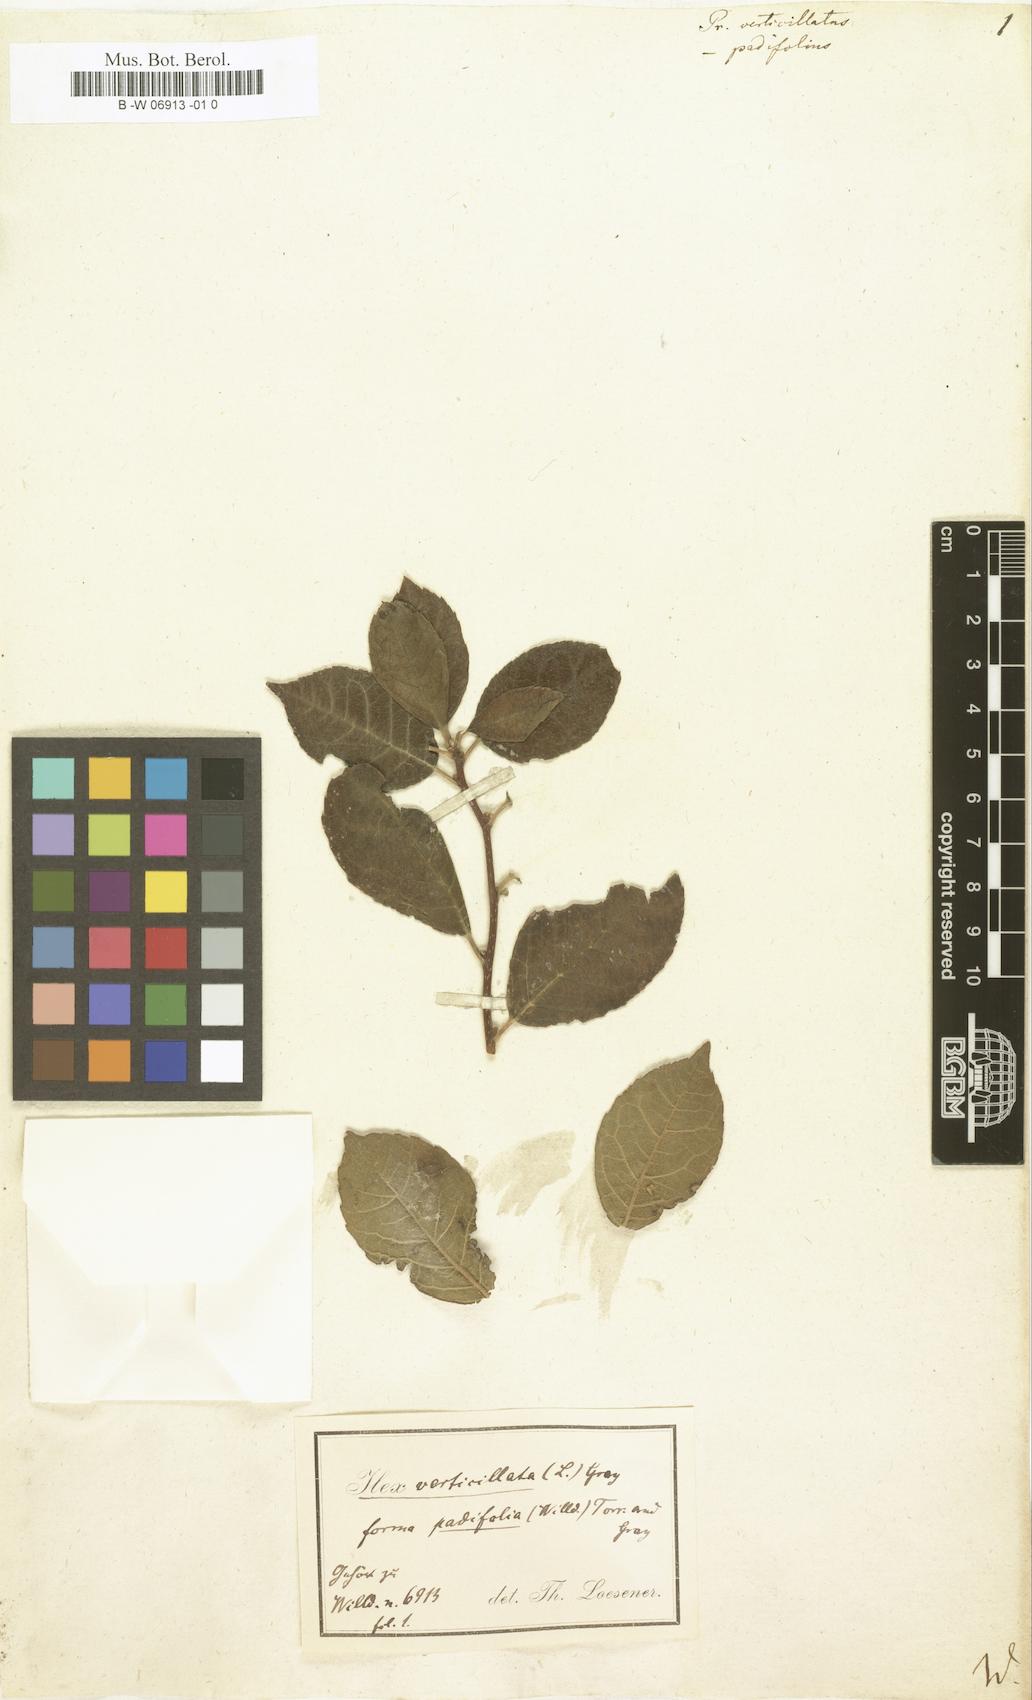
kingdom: Plantae
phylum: Tracheophyta
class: Magnoliopsida
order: Aquifoliales
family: Aquifoliaceae
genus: Ilex
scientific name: Ilex verticillata
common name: Virginia winterberry
